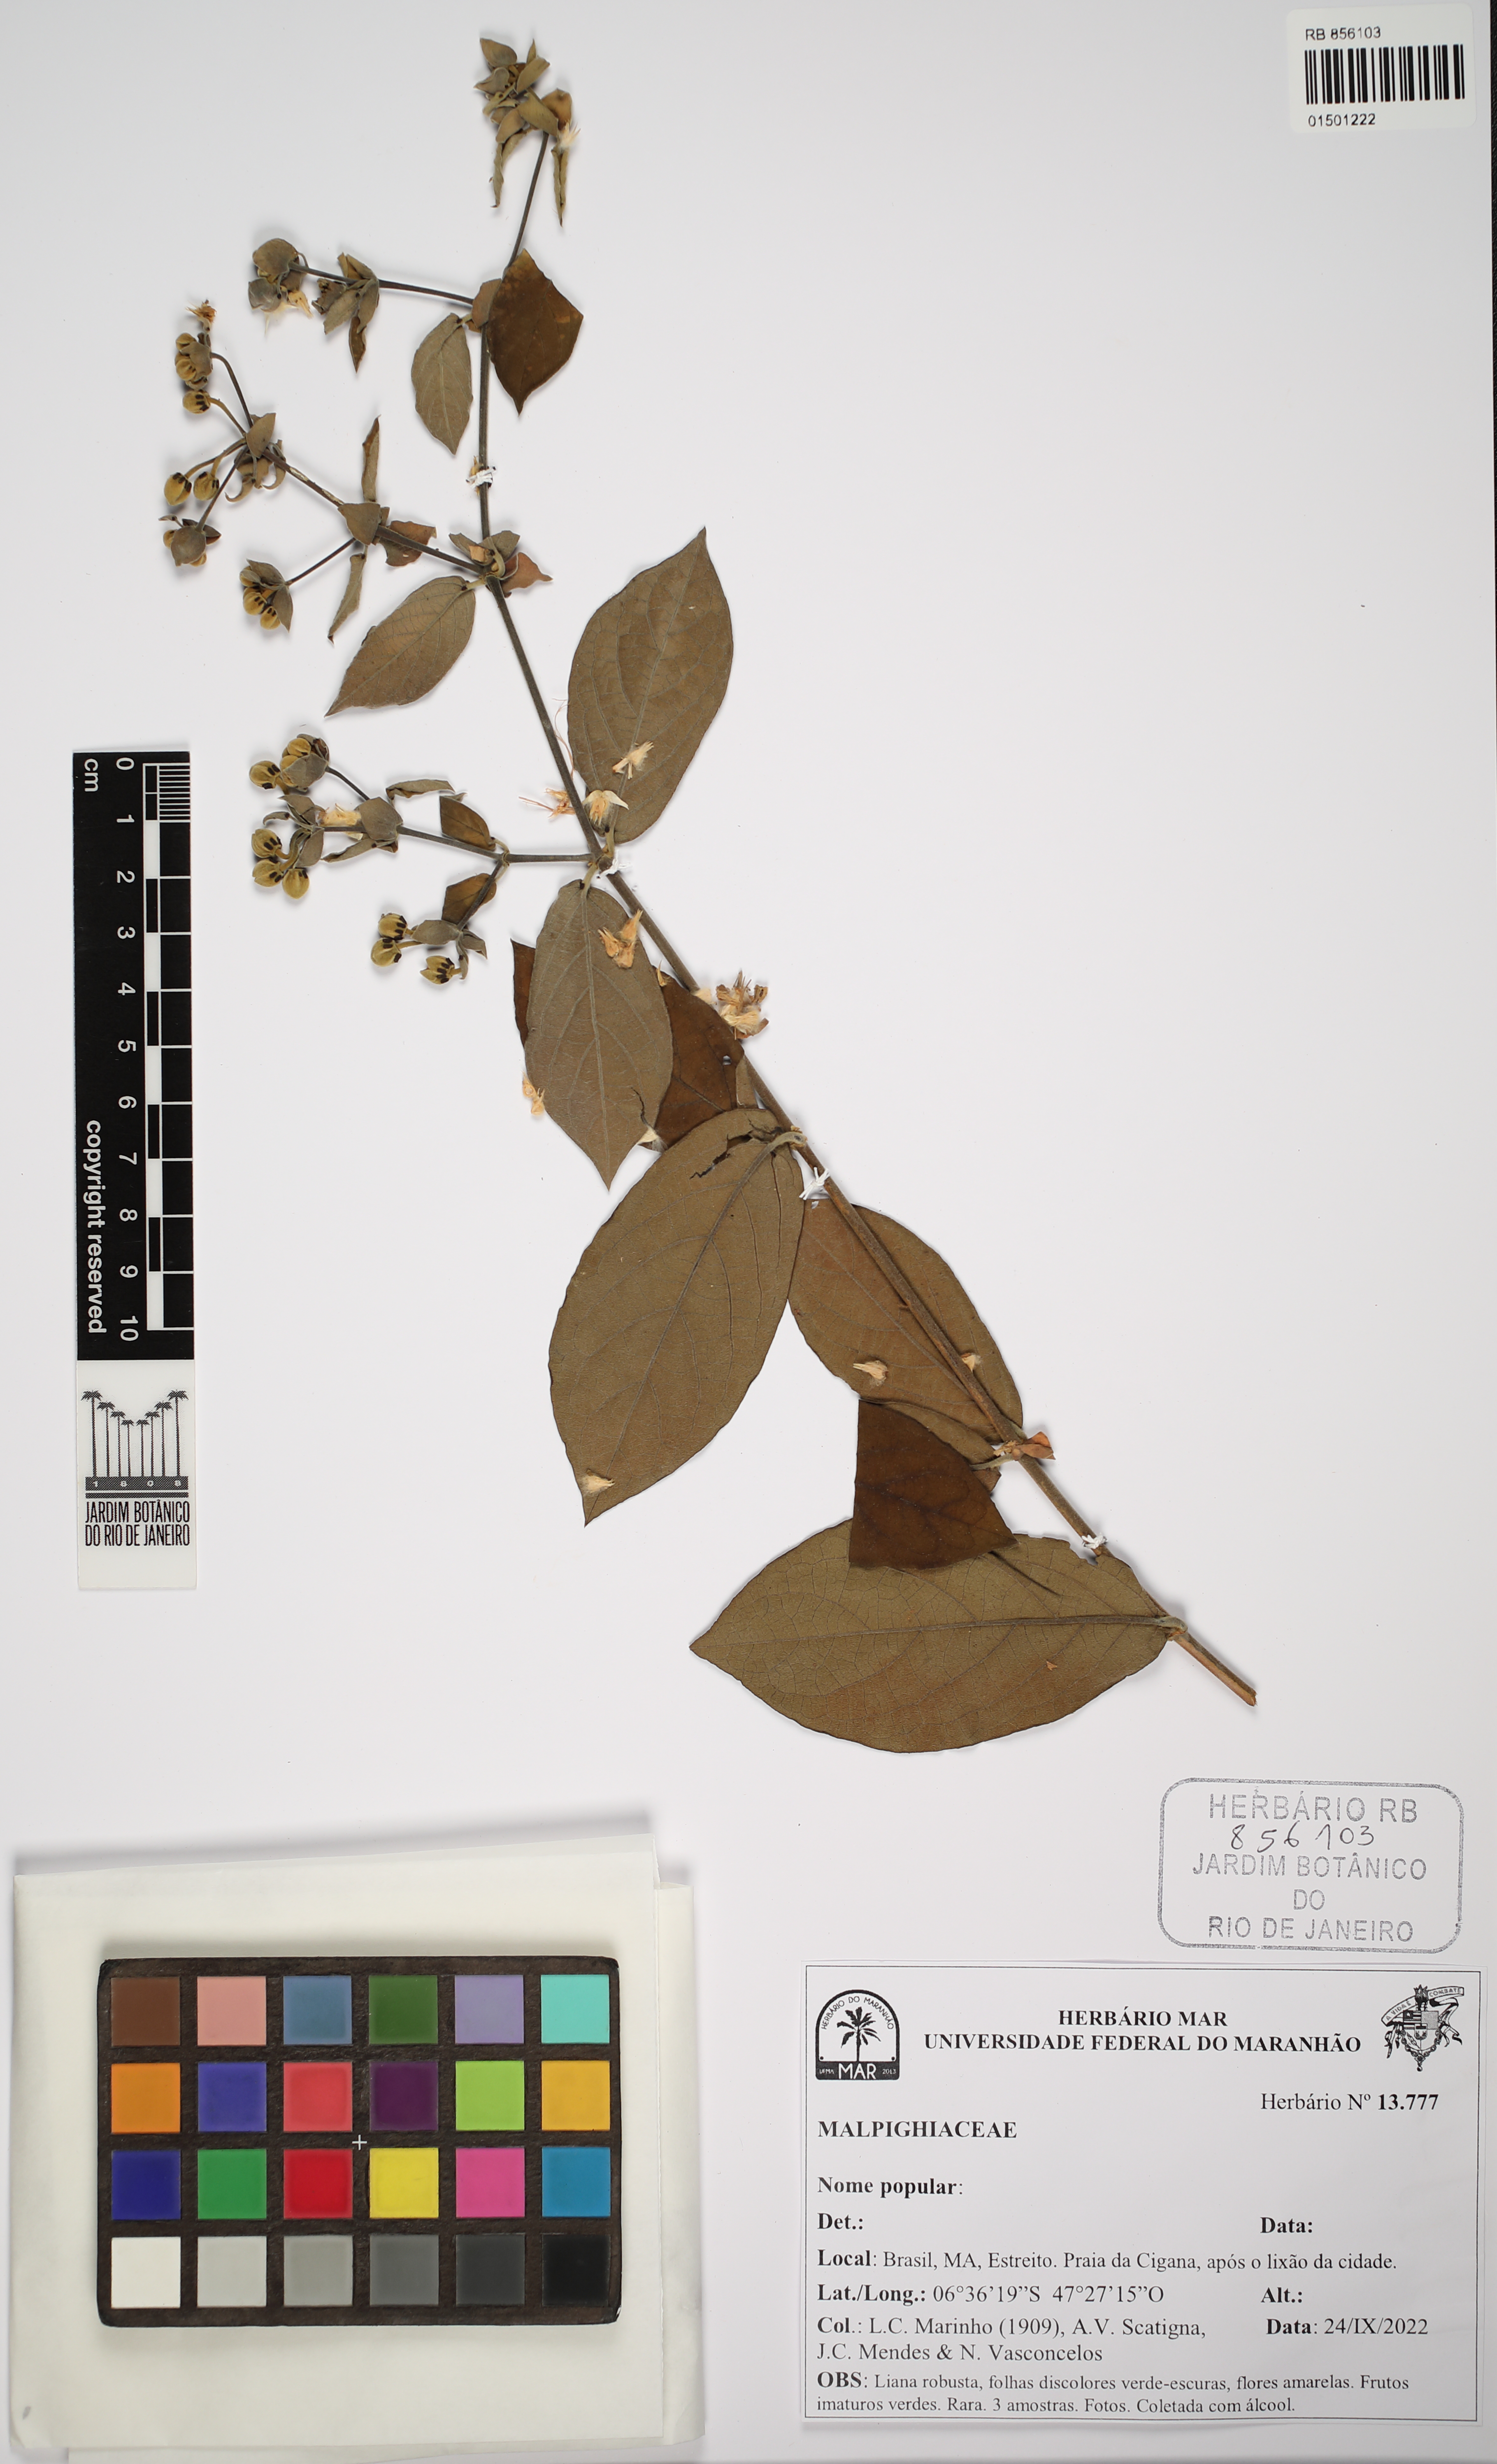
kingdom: Plantae
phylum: Tracheophyta
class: Magnoliopsida
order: Malpighiales
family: Malpighiaceae
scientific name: Malpighiaceae
